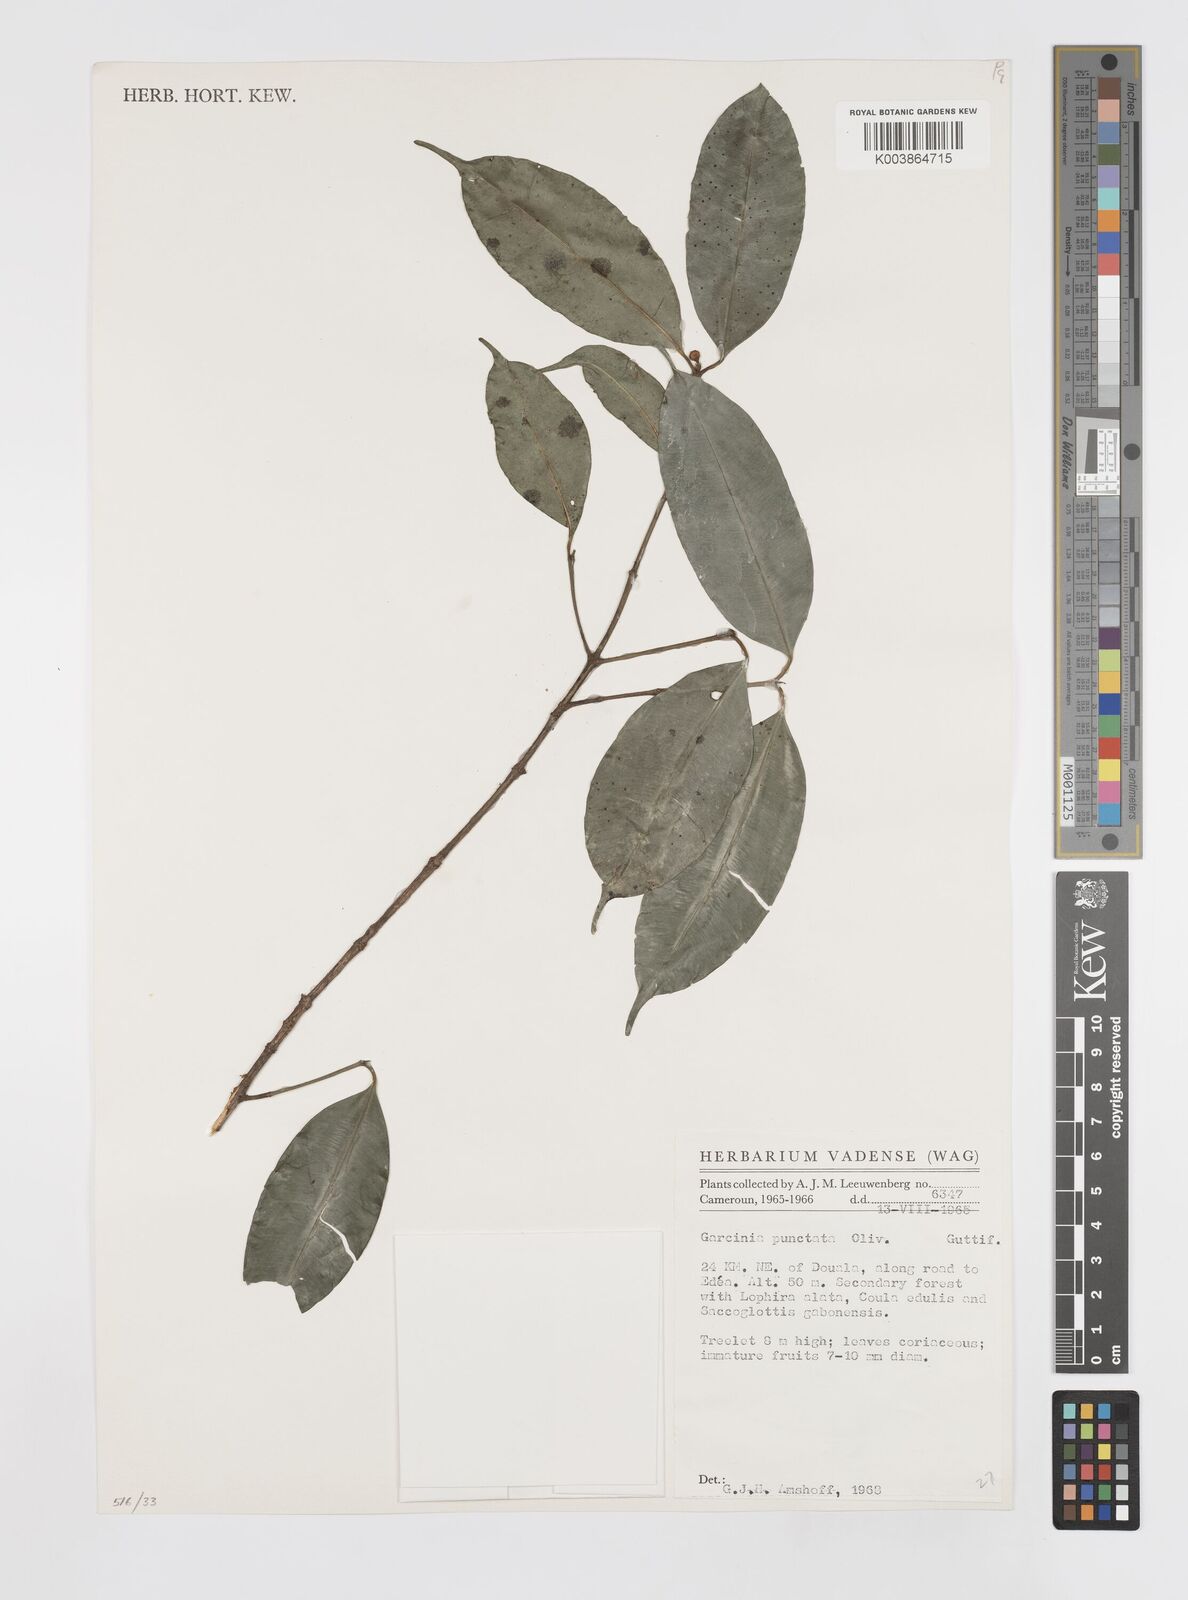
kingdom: Plantae
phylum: Tracheophyta
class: Magnoliopsida
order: Malpighiales
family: Clusiaceae
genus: Garcinia
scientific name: Garcinia punctata
